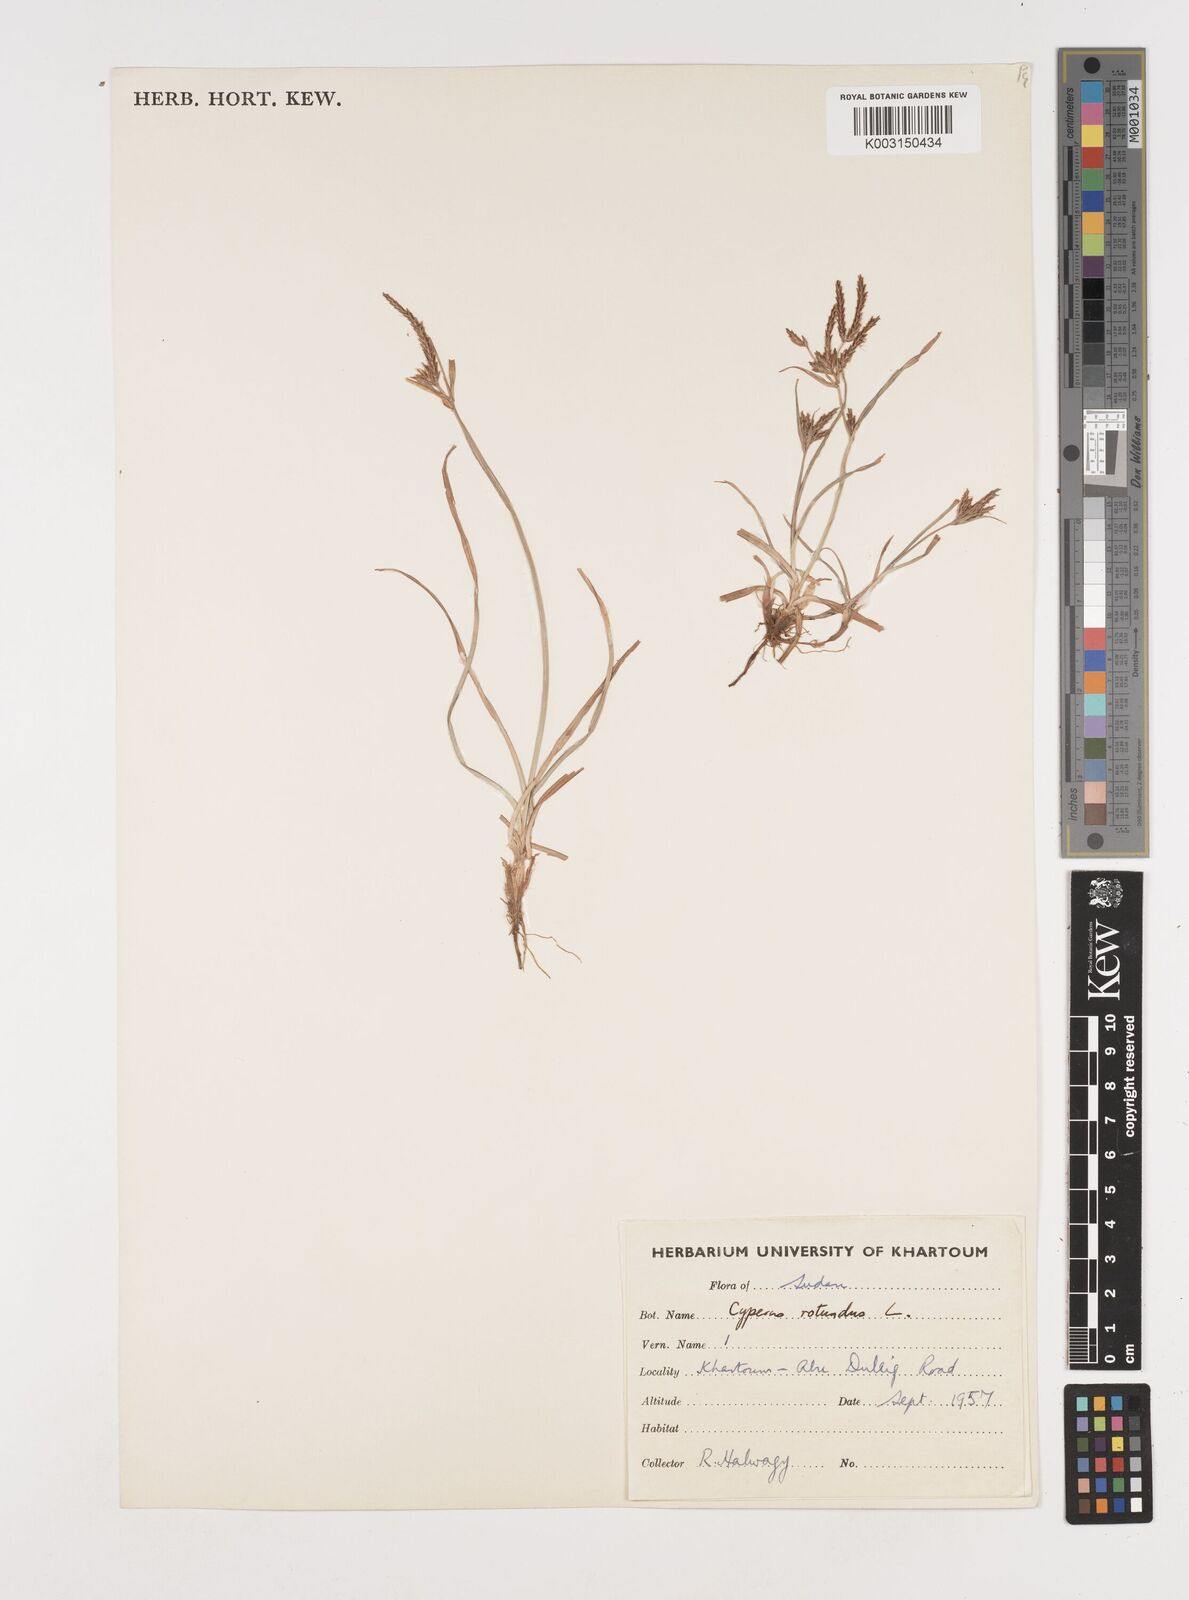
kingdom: Plantae
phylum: Tracheophyta
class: Liliopsida
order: Poales
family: Cyperaceae
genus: Cyperus
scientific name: Cyperus rotundus
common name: Nutgrass
